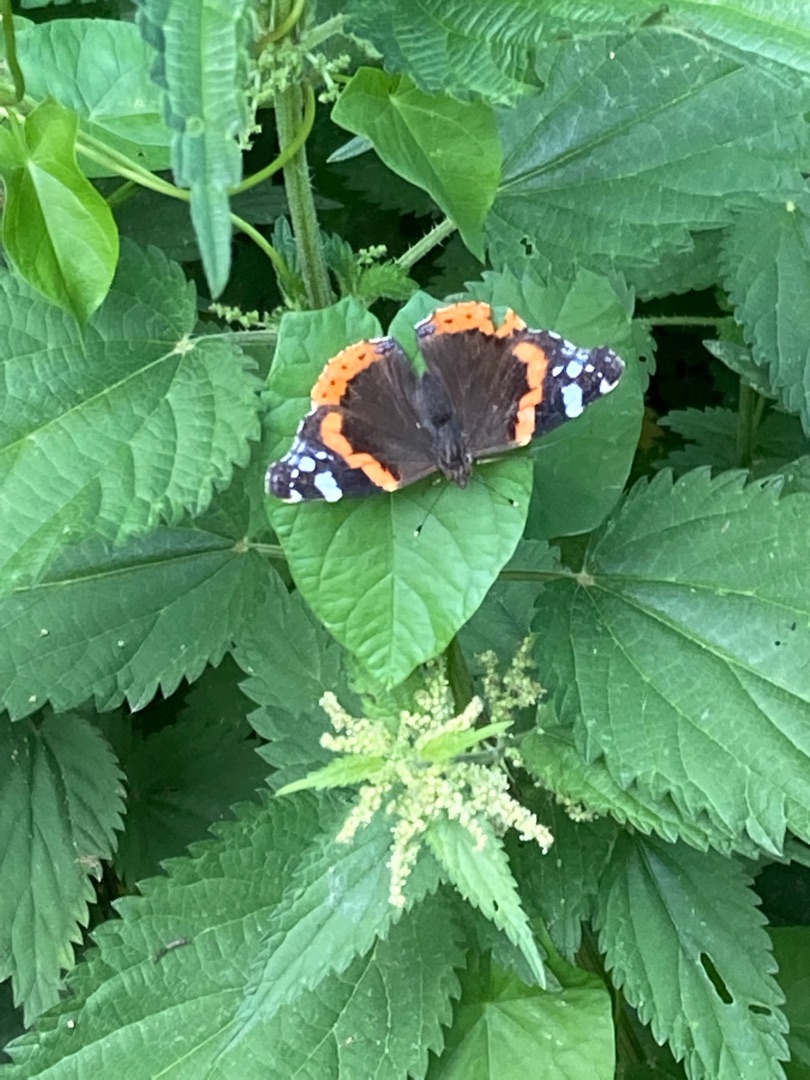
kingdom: Animalia
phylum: Arthropoda
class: Insecta
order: Lepidoptera
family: Nymphalidae
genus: Vanessa
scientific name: Vanessa atalanta
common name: Admiral
